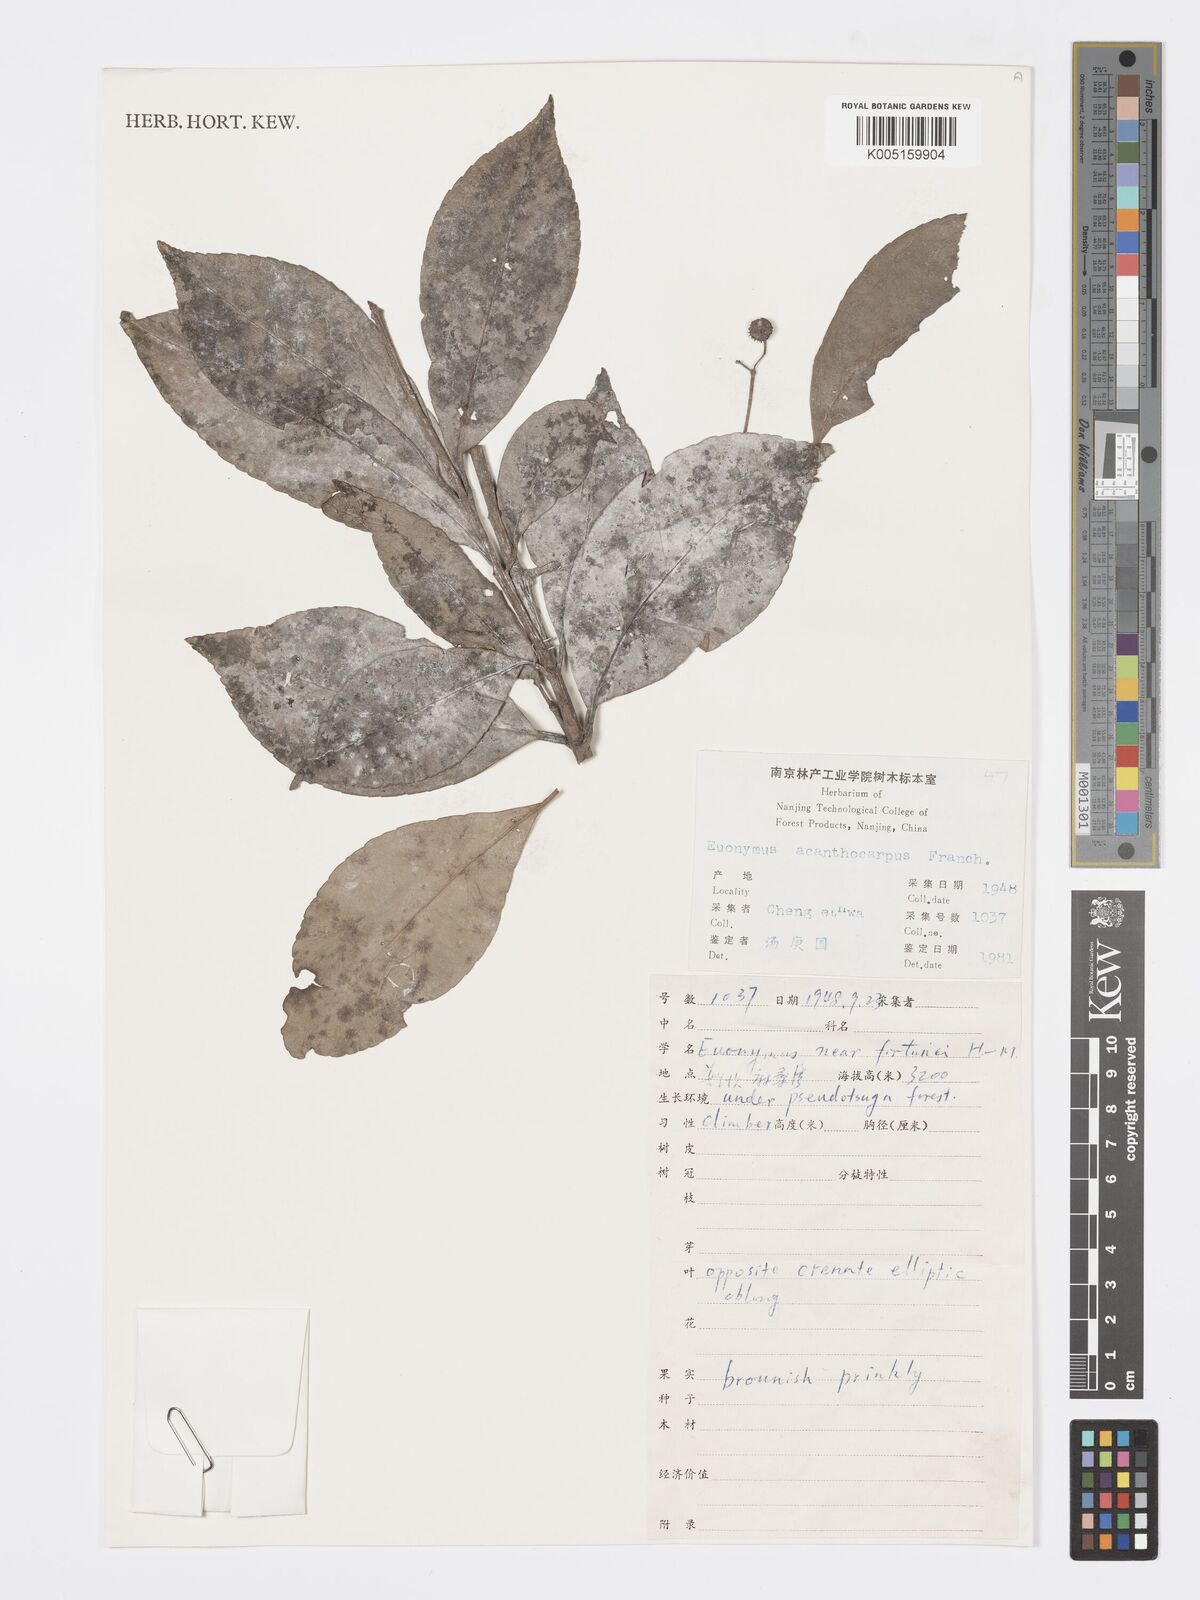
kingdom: Plantae
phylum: Tracheophyta
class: Magnoliopsida
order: Celastrales
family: Celastraceae
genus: Euonymus
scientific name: Euonymus acanthocarpus
